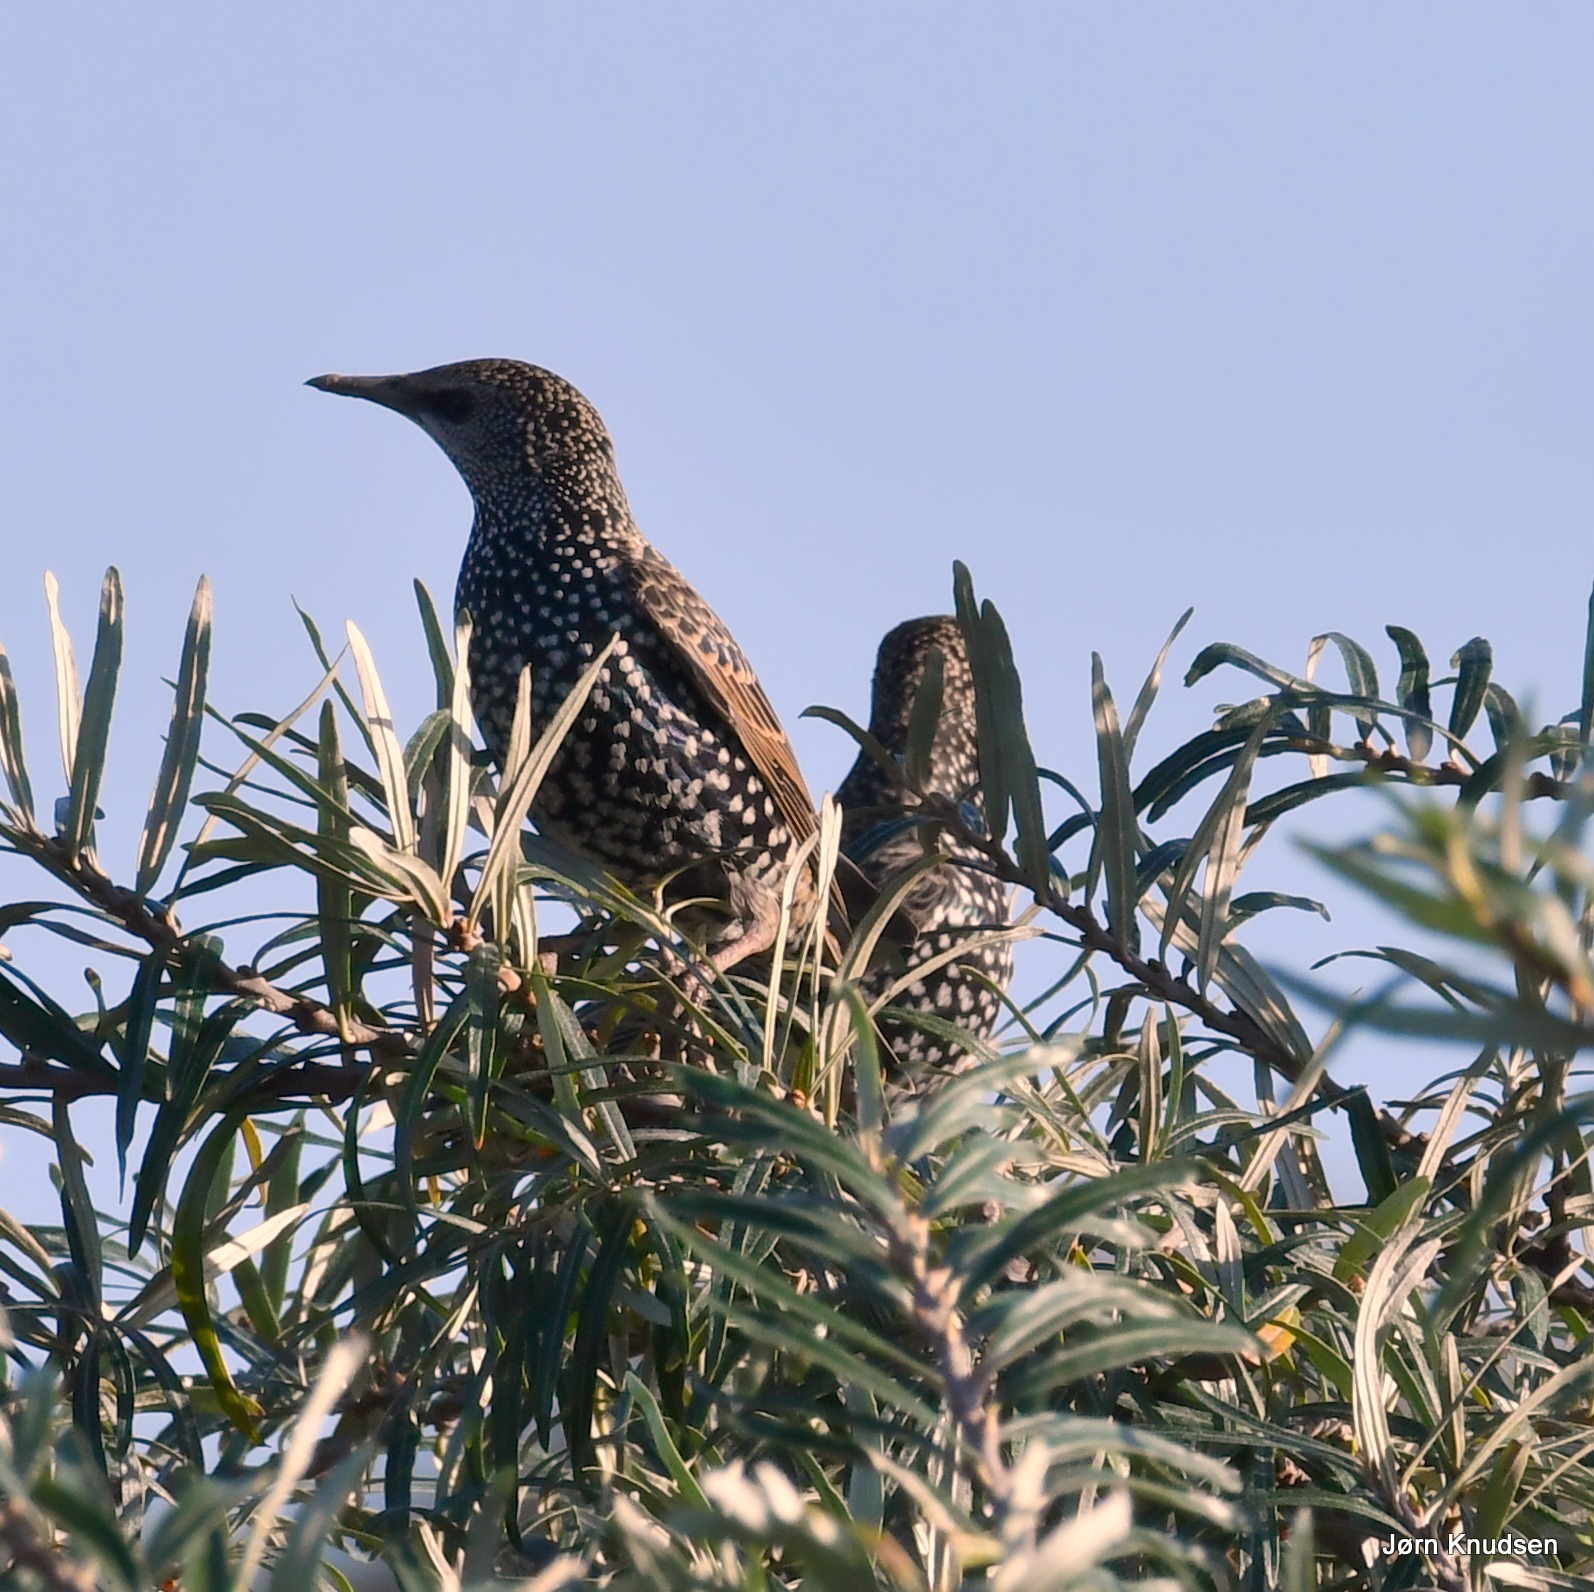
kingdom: Animalia
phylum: Chordata
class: Aves
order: Passeriformes
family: Sturnidae
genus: Sturnus
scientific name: Sturnus vulgaris
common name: Stær
